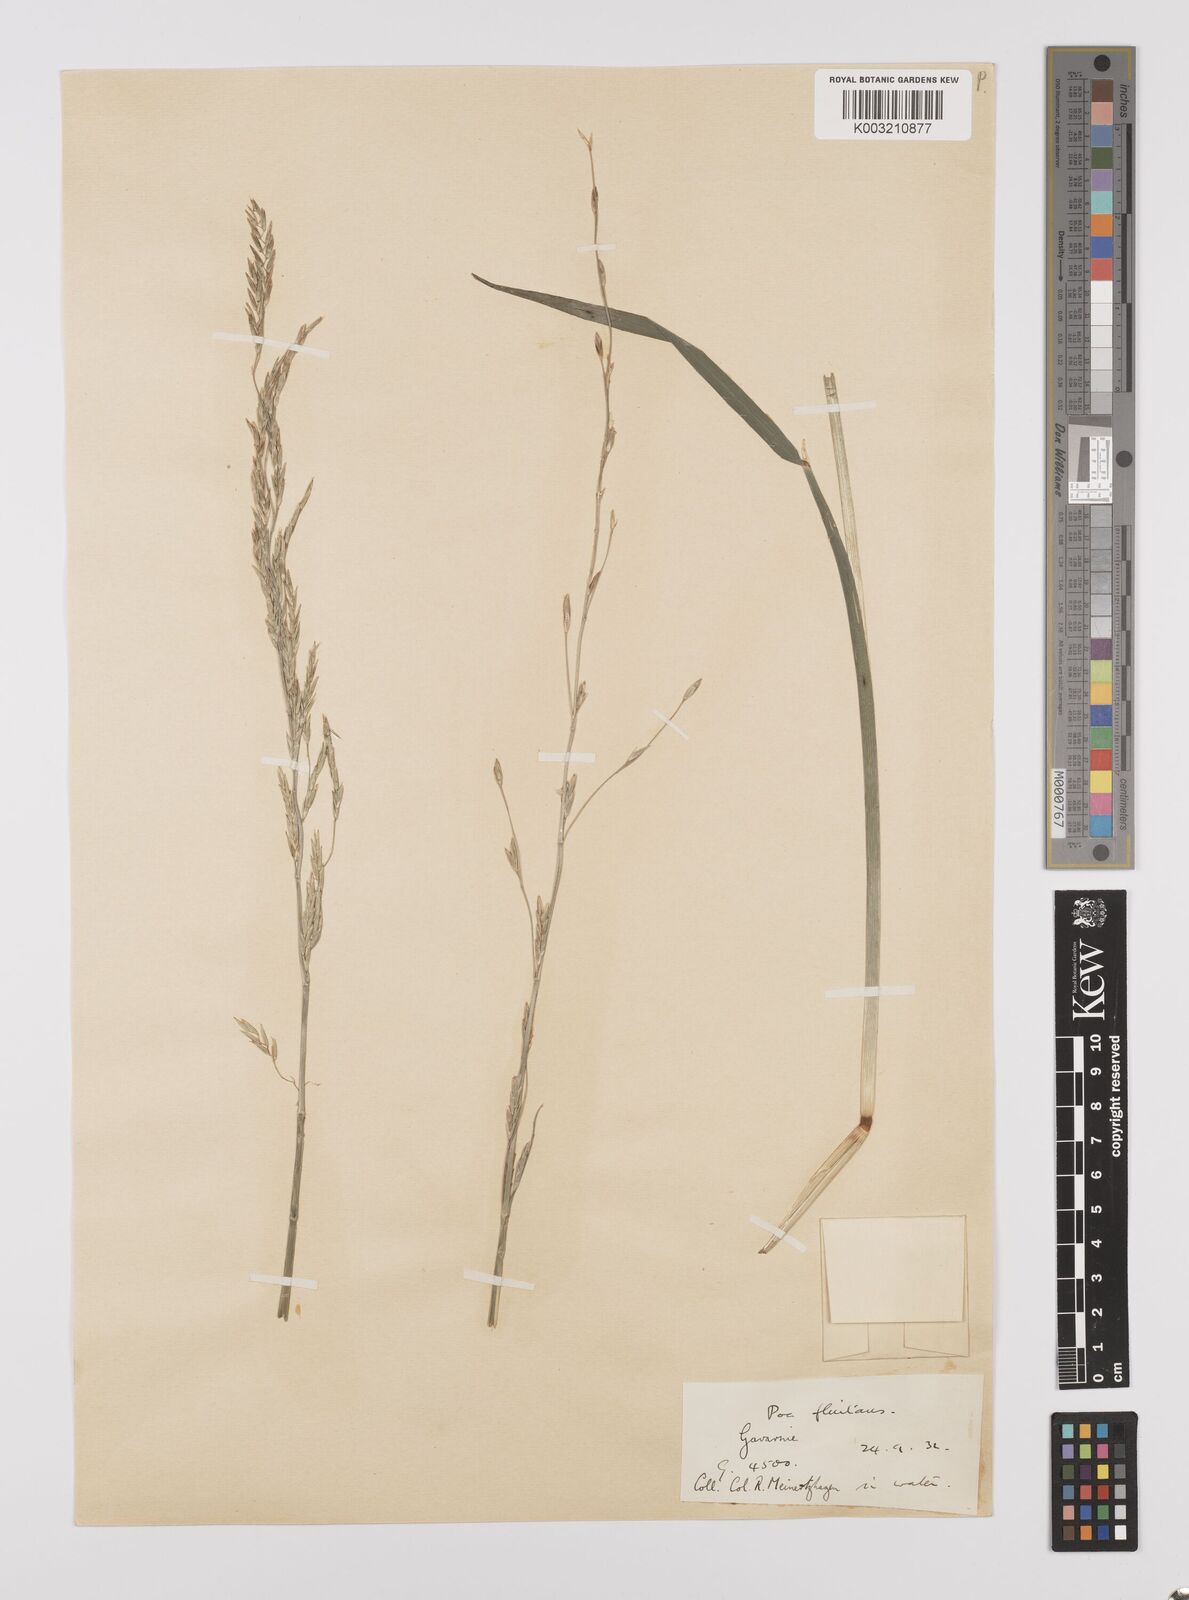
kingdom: Plantae
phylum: Tracheophyta
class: Liliopsida
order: Poales
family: Poaceae
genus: Glyceria
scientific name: Glyceria fluitans
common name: Floating sweet-grass
